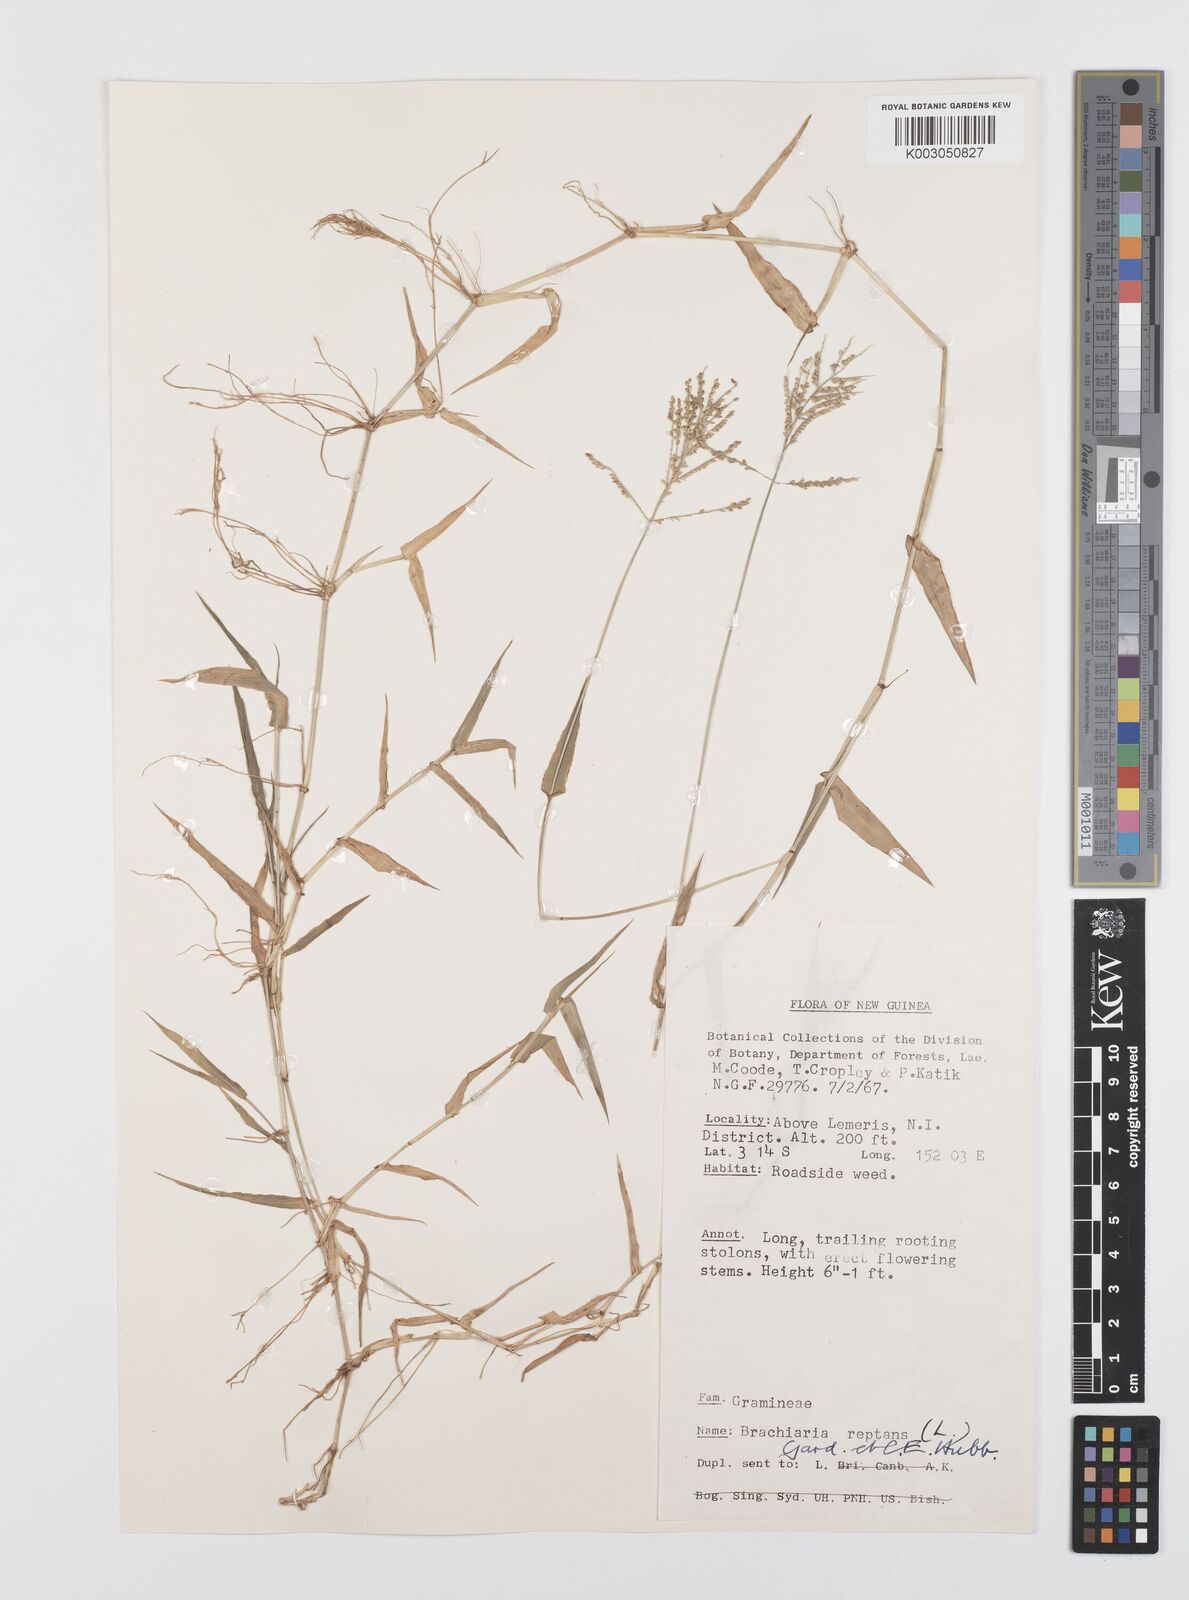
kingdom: Plantae
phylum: Tracheophyta
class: Liliopsida
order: Poales
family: Poaceae
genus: Urochloa
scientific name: Urochloa reptans
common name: Sprawling signalgrass
